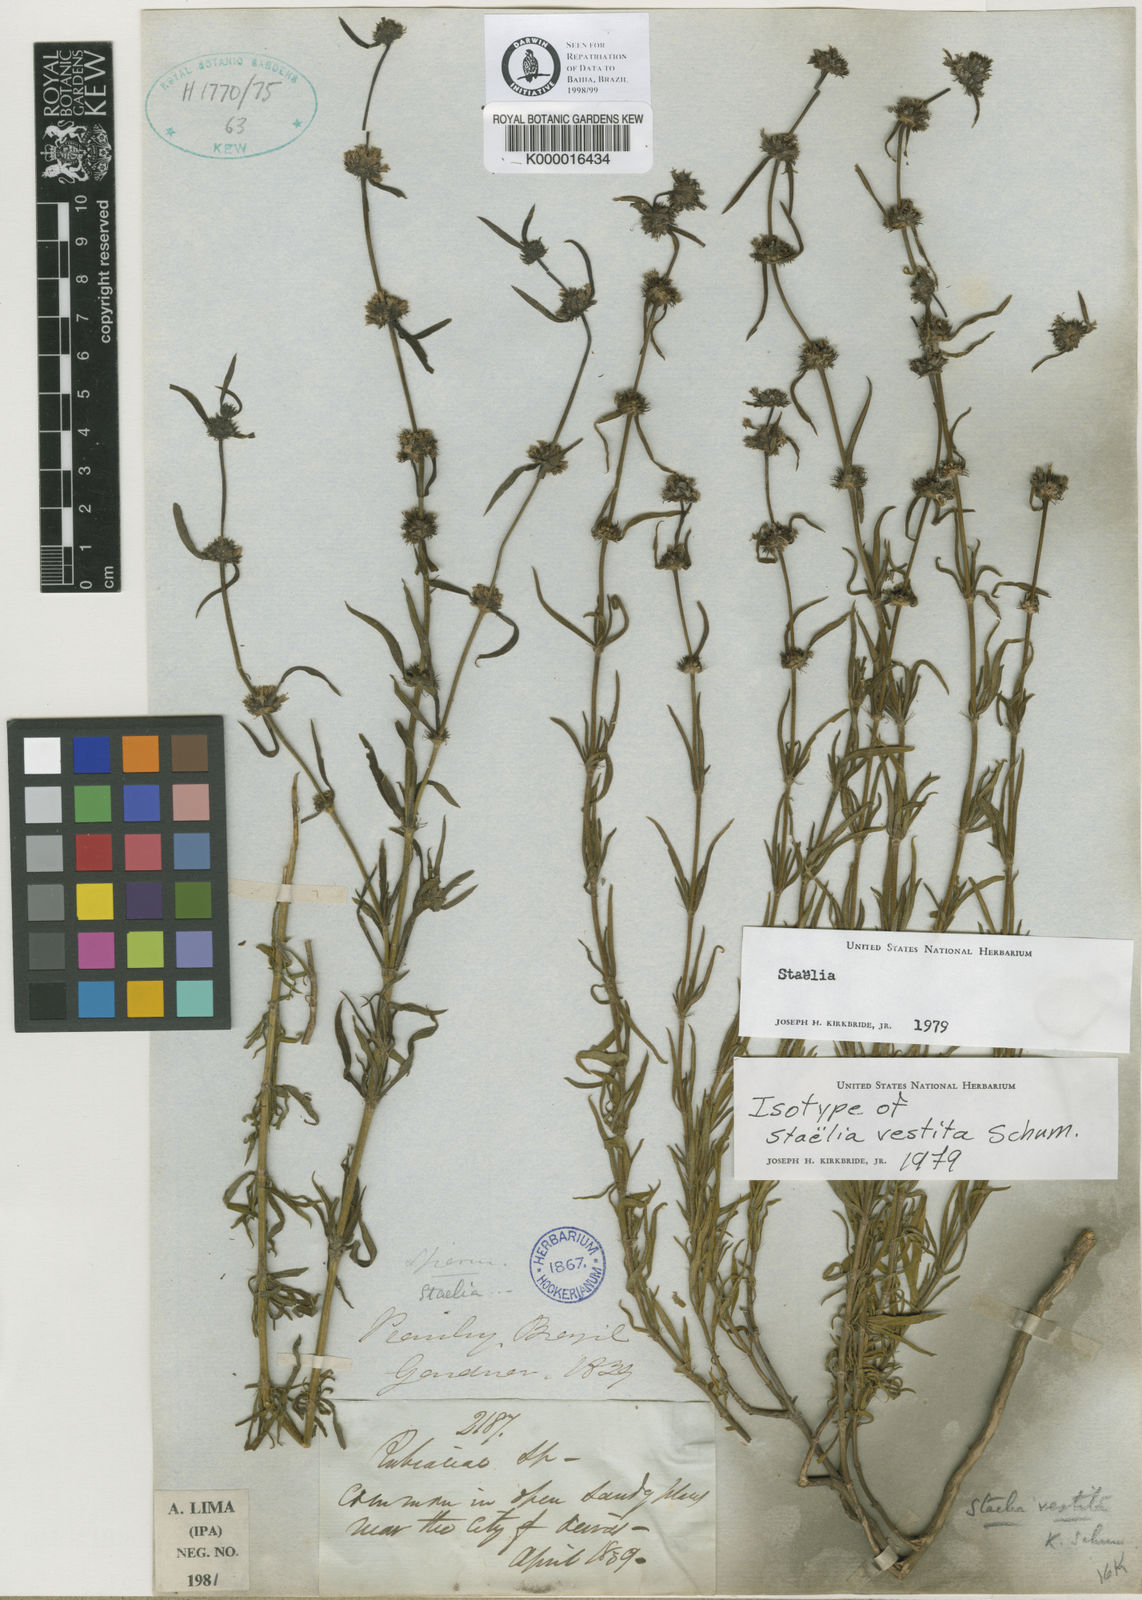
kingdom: Plantae
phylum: Tracheophyta
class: Magnoliopsida
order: Gentianales
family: Rubiaceae
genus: Staelia
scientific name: Staelia vestita
